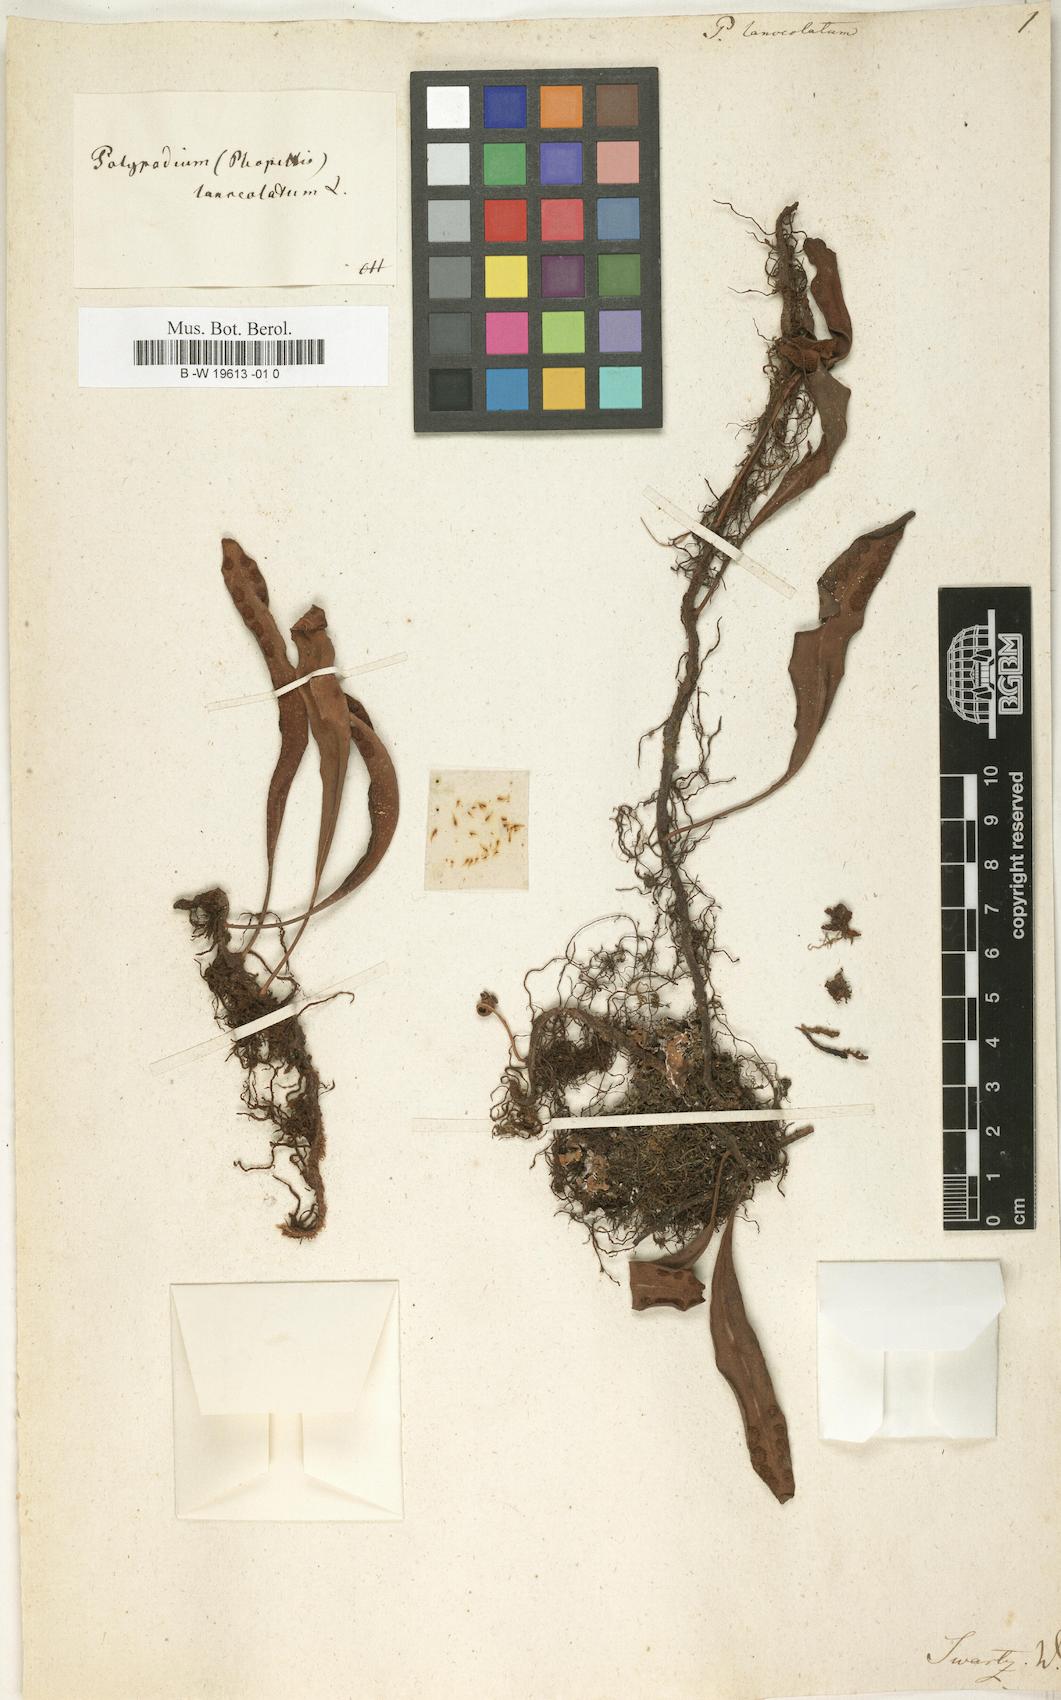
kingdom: Plantae
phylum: Tracheophyta
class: Polypodiopsida
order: Polypodiales
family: Polypodiaceae
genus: Pleopeltis
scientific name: Pleopeltis macrocarpa
